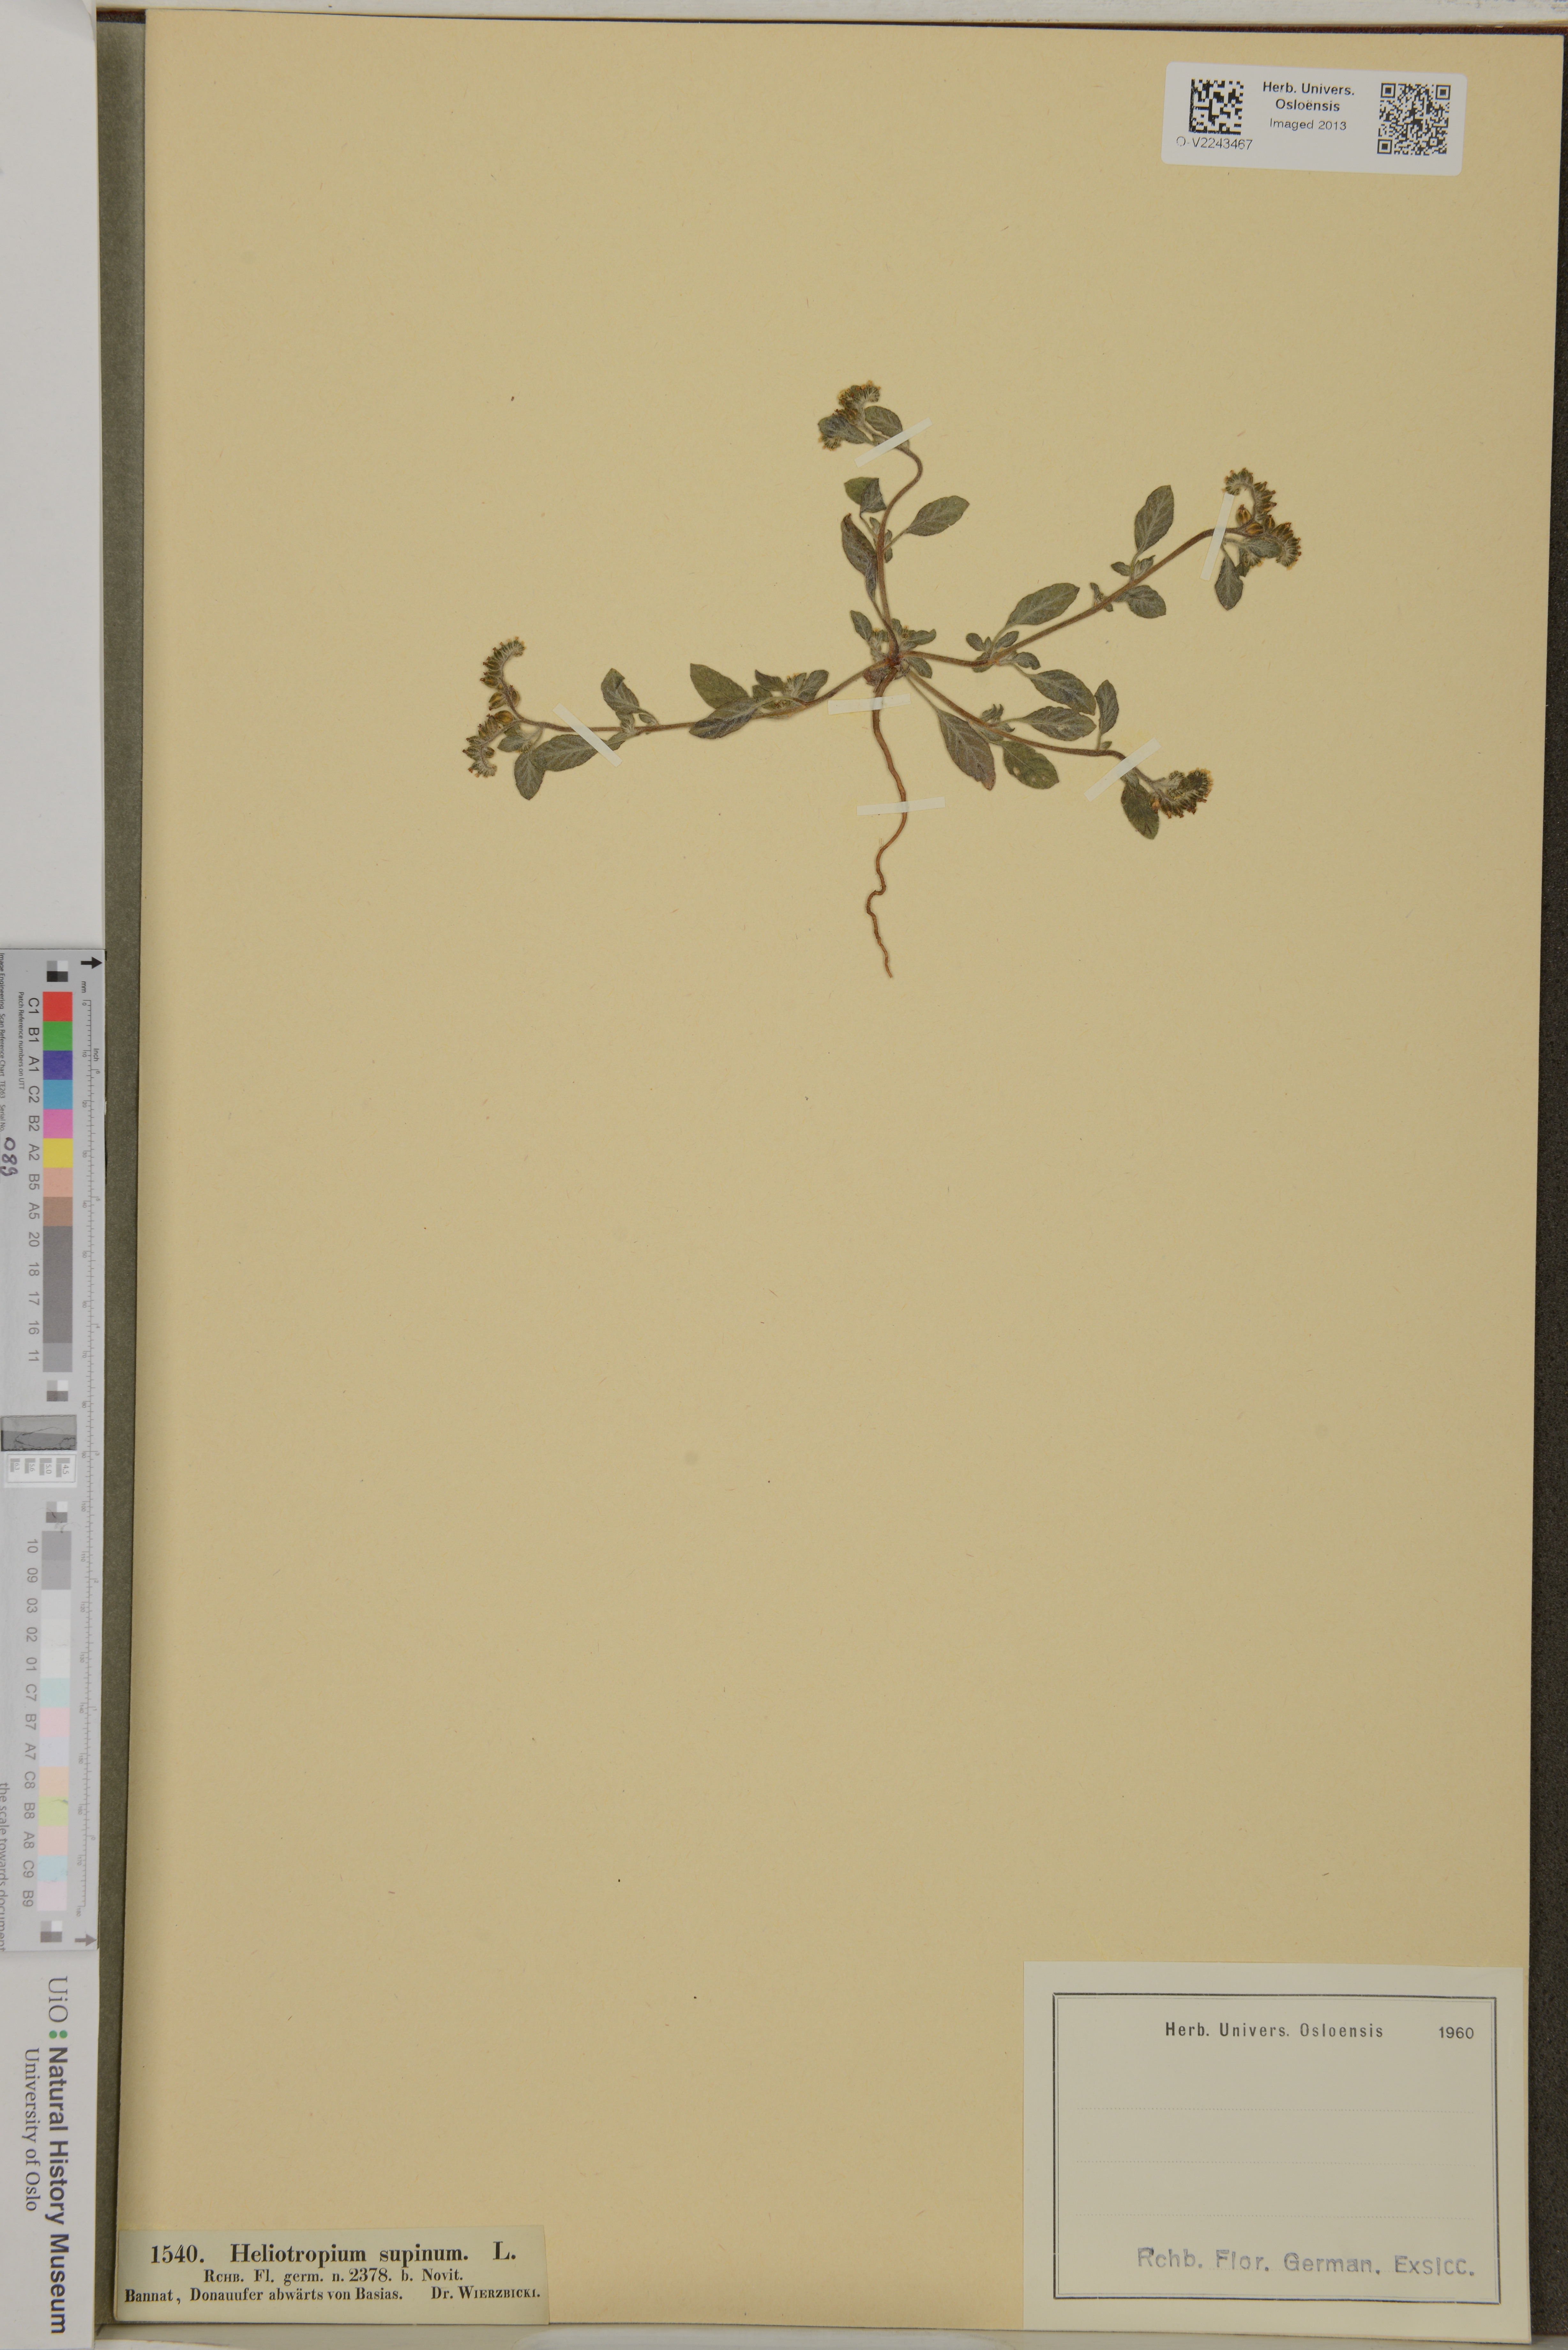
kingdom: Plantae
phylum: Tracheophyta
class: Magnoliopsida
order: Boraginales
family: Heliotropiaceae
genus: Heliotropium
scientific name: Heliotropium supinum
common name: Dwarf heliotrope
